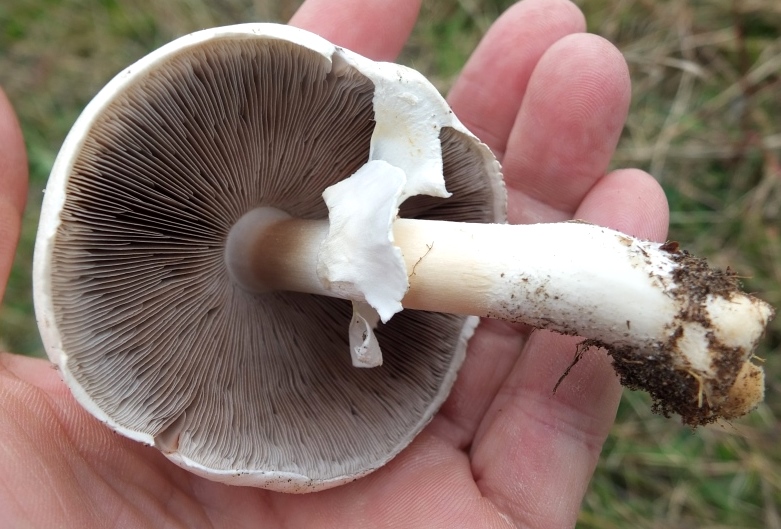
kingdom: Fungi
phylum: Basidiomycota
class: Agaricomycetes
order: Agaricales
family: Agaricaceae
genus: Agaricus
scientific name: Agaricus arvensis
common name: ager-champignon
